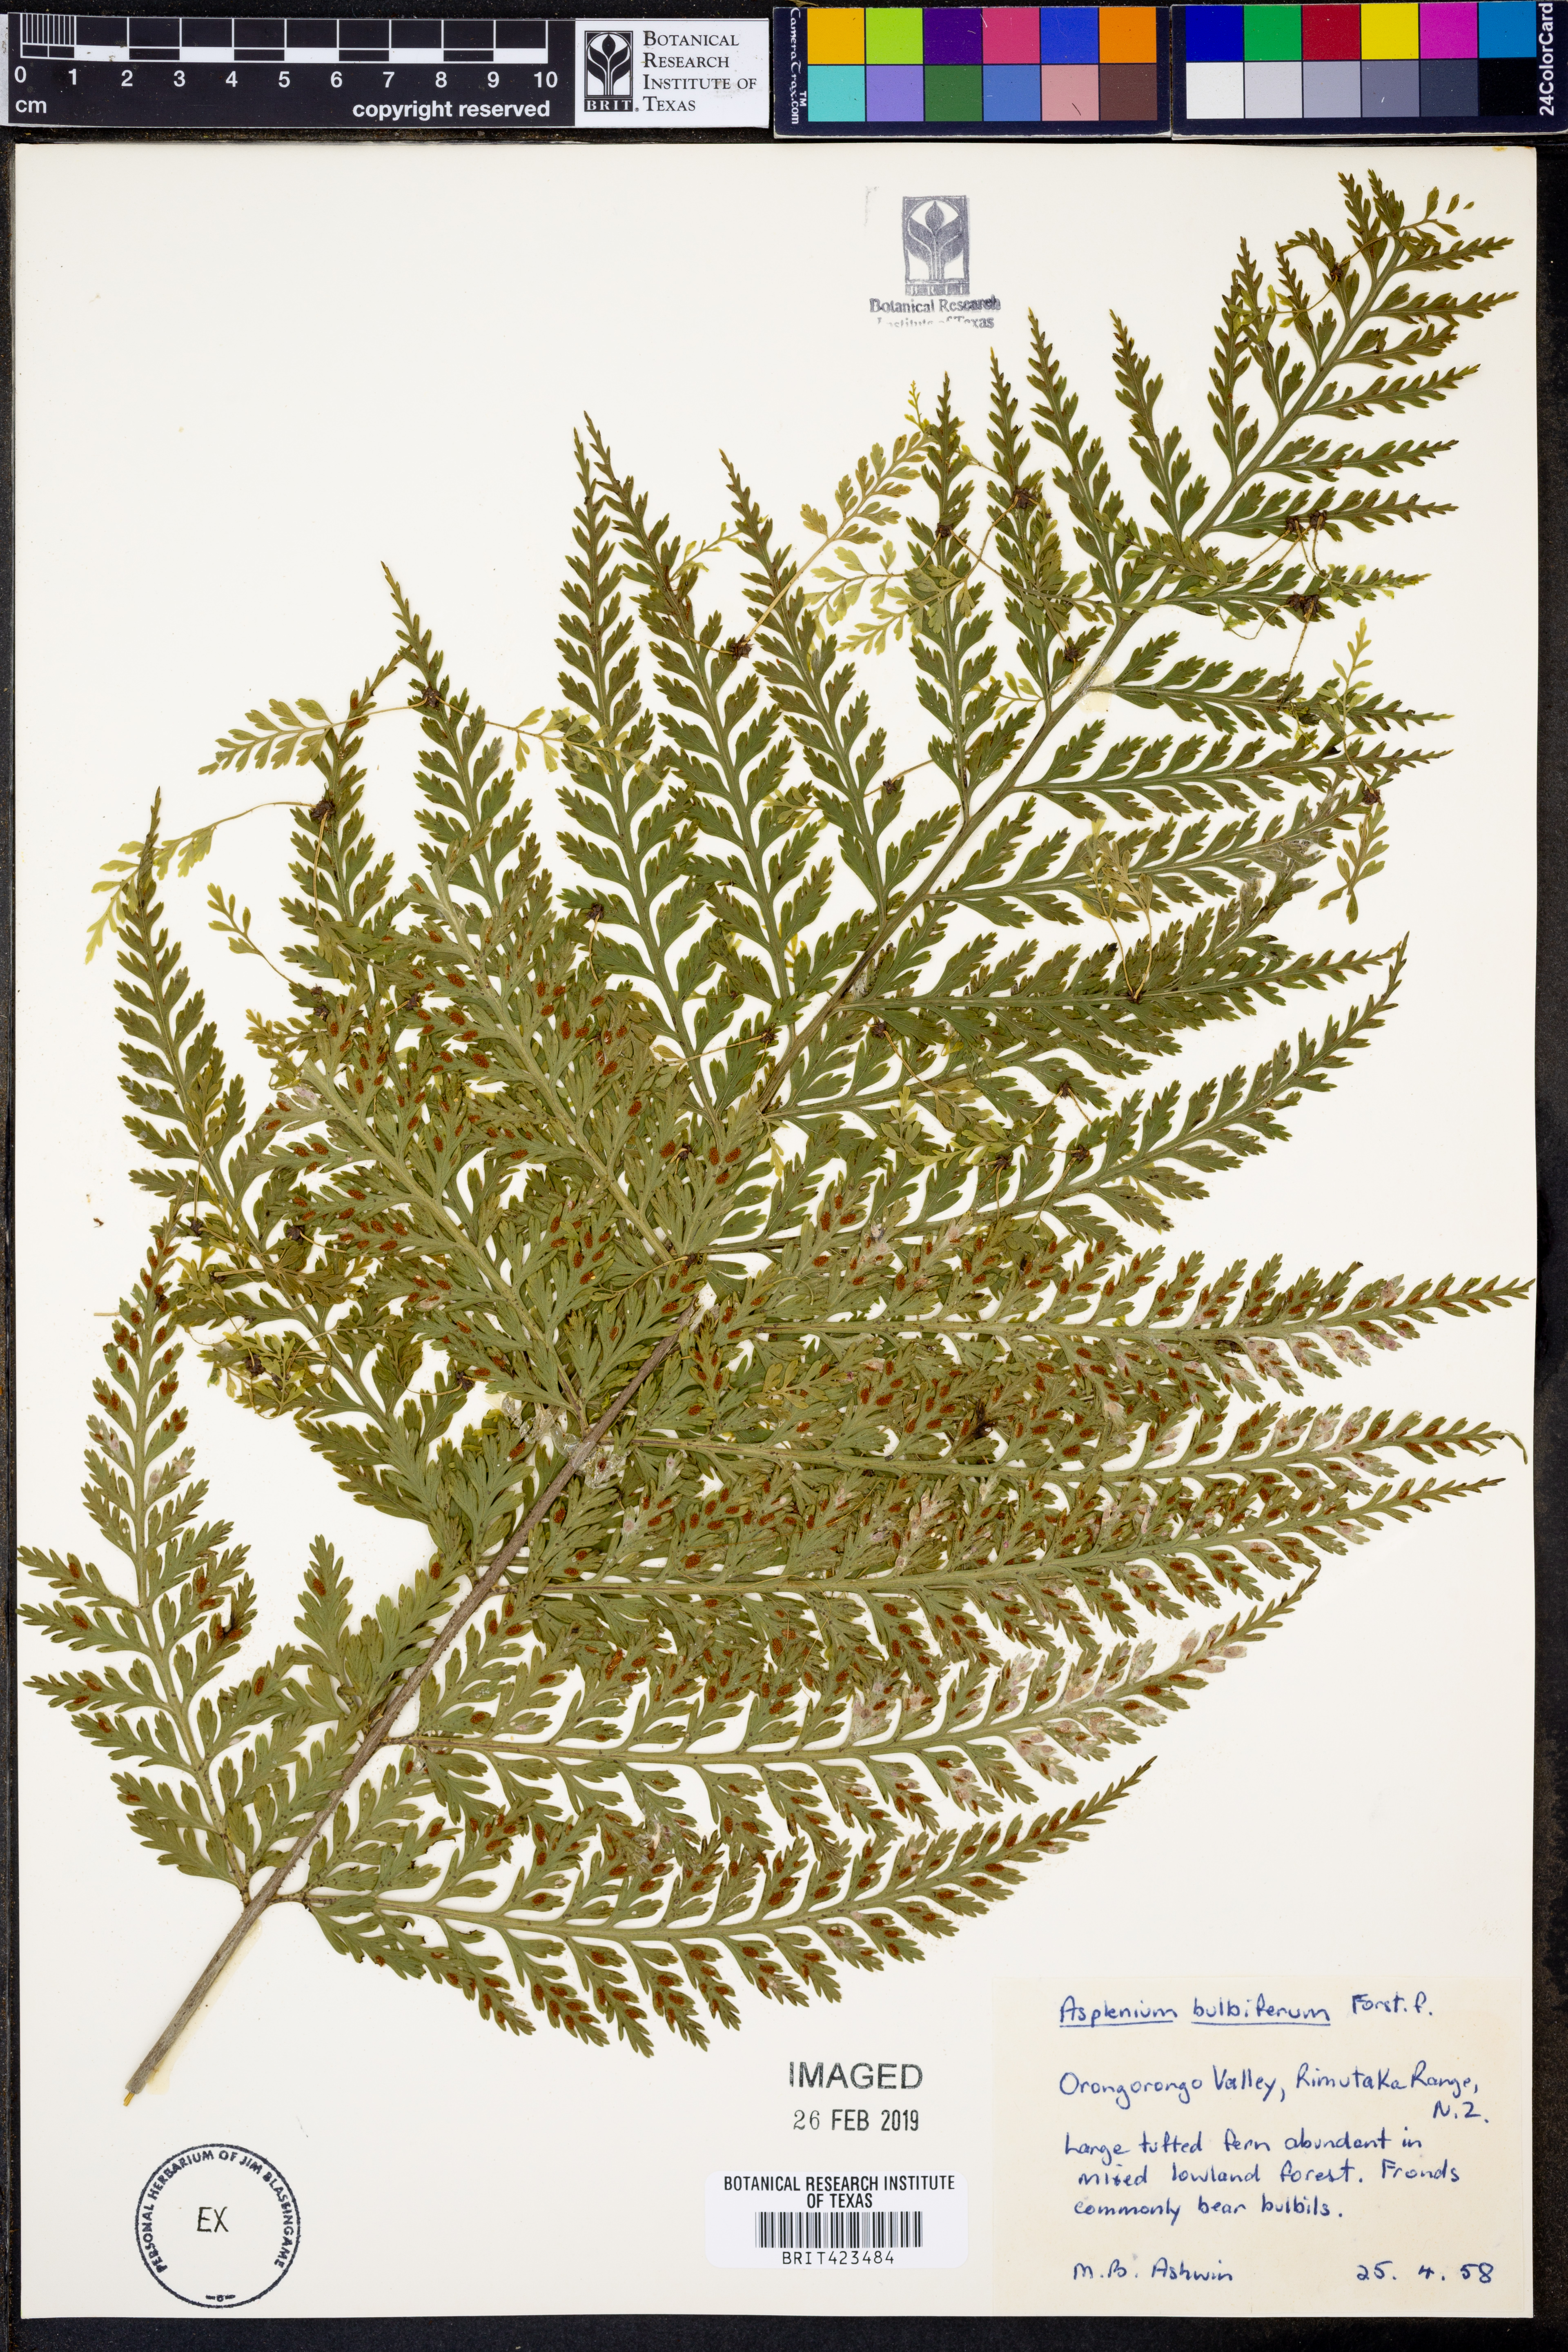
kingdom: Plantae
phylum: Tracheophyta
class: Polypodiopsida
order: Polypodiales
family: Aspleniaceae
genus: Asplenium
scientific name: Asplenium bulbiferum
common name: Mother fern
